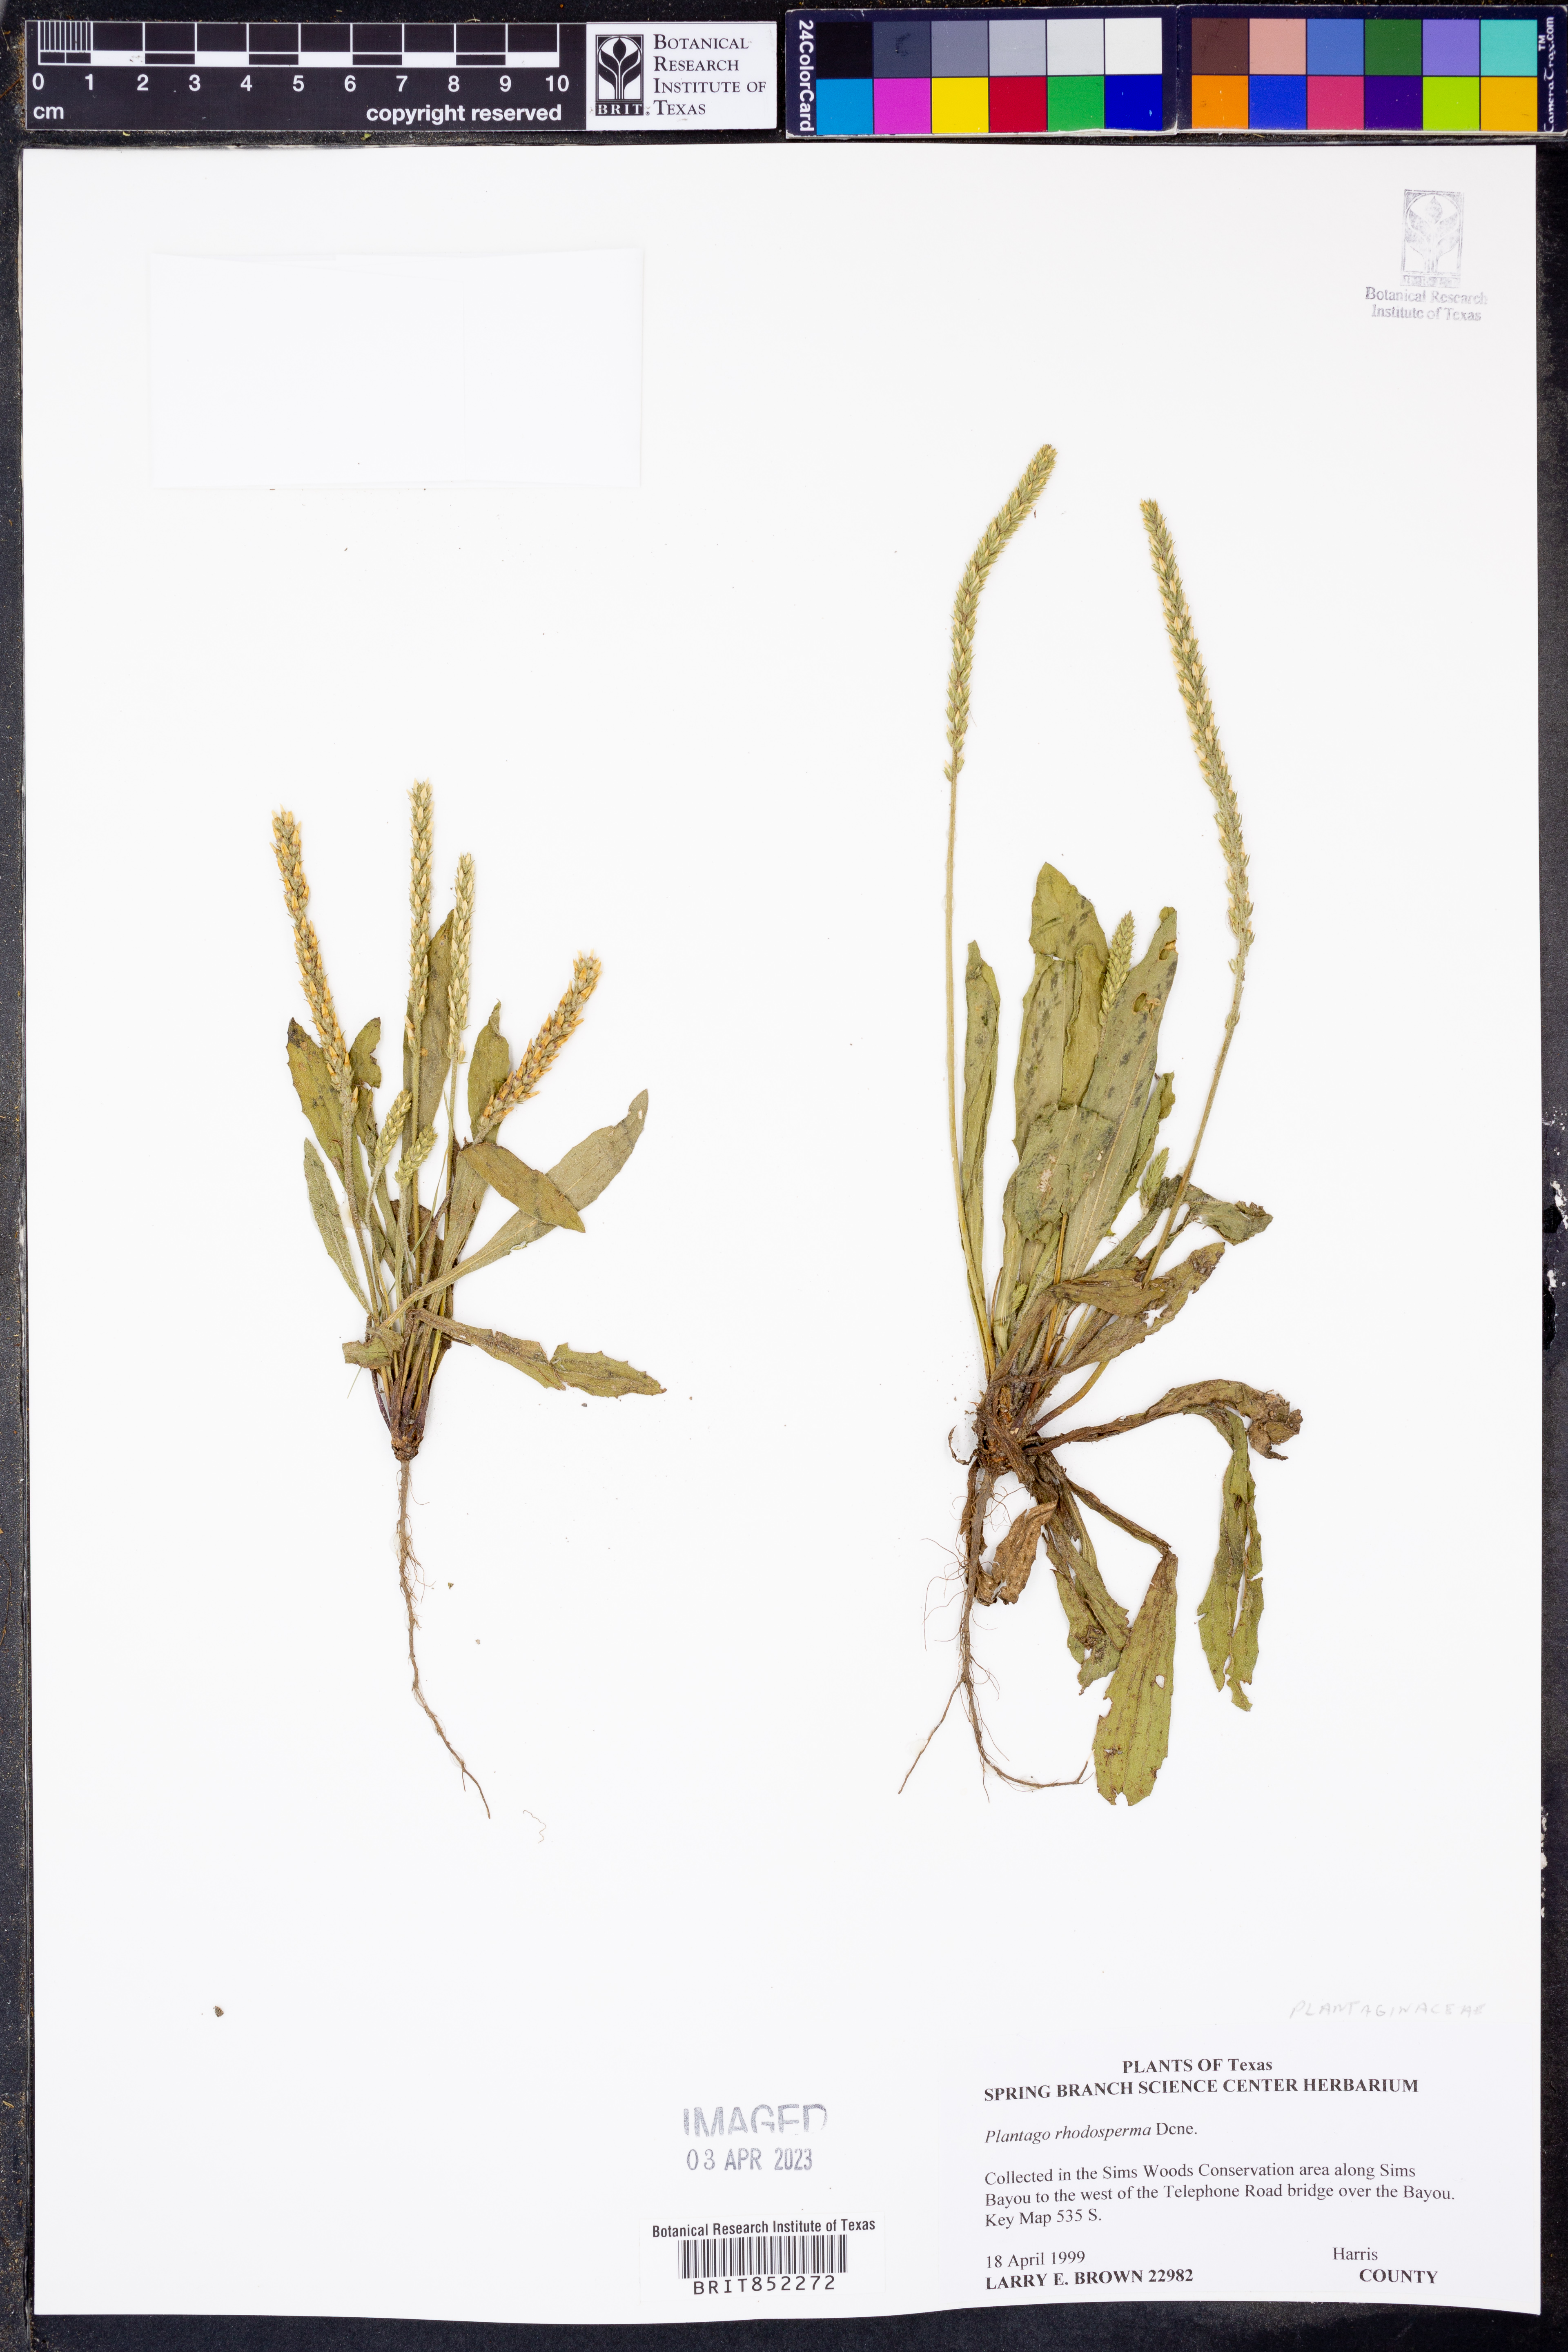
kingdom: Plantae
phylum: Tracheophyta
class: Magnoliopsida
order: Lamiales
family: Plantaginaceae
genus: Plantago
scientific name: Plantago rhodosperma
